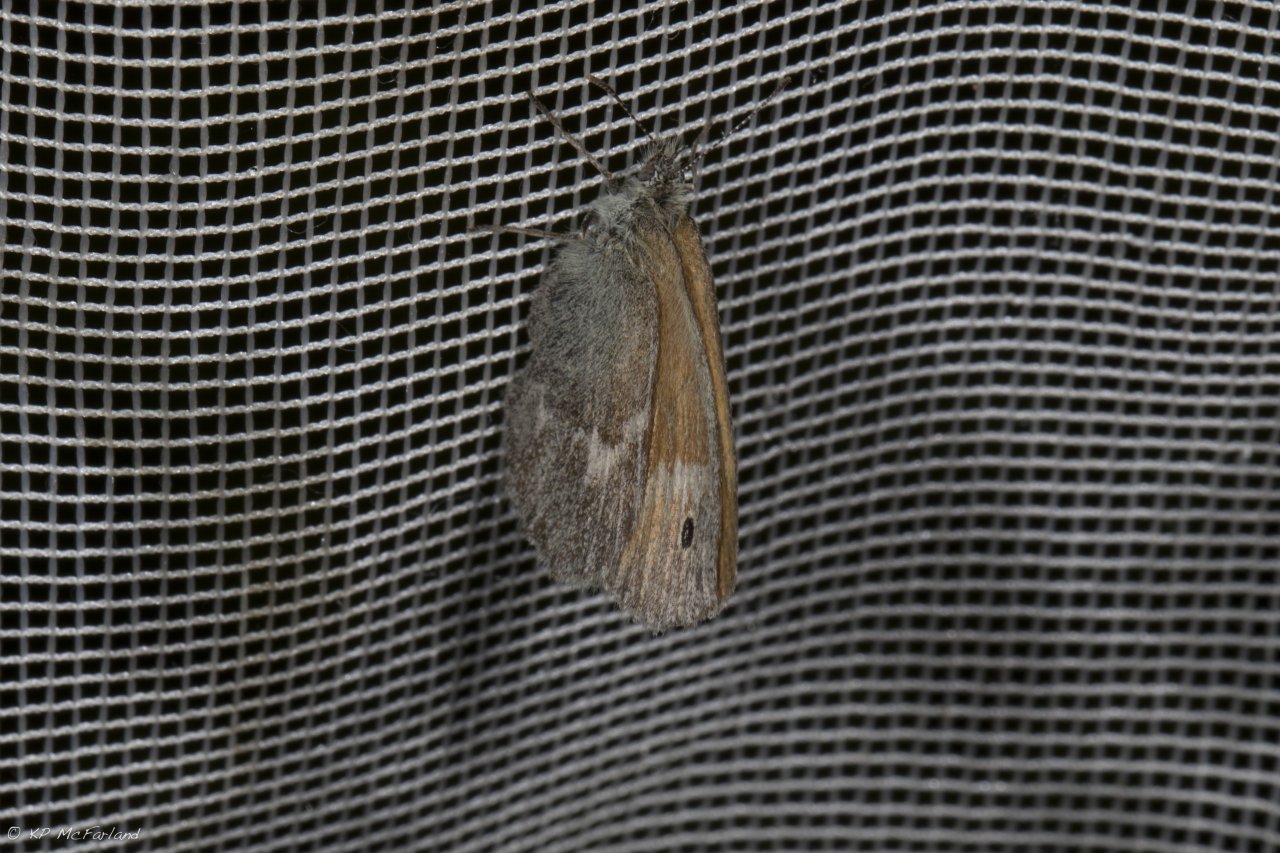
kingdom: Animalia
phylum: Arthropoda
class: Insecta
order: Lepidoptera
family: Nymphalidae
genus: Coenonympha
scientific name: Coenonympha tullia
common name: Large Heath
